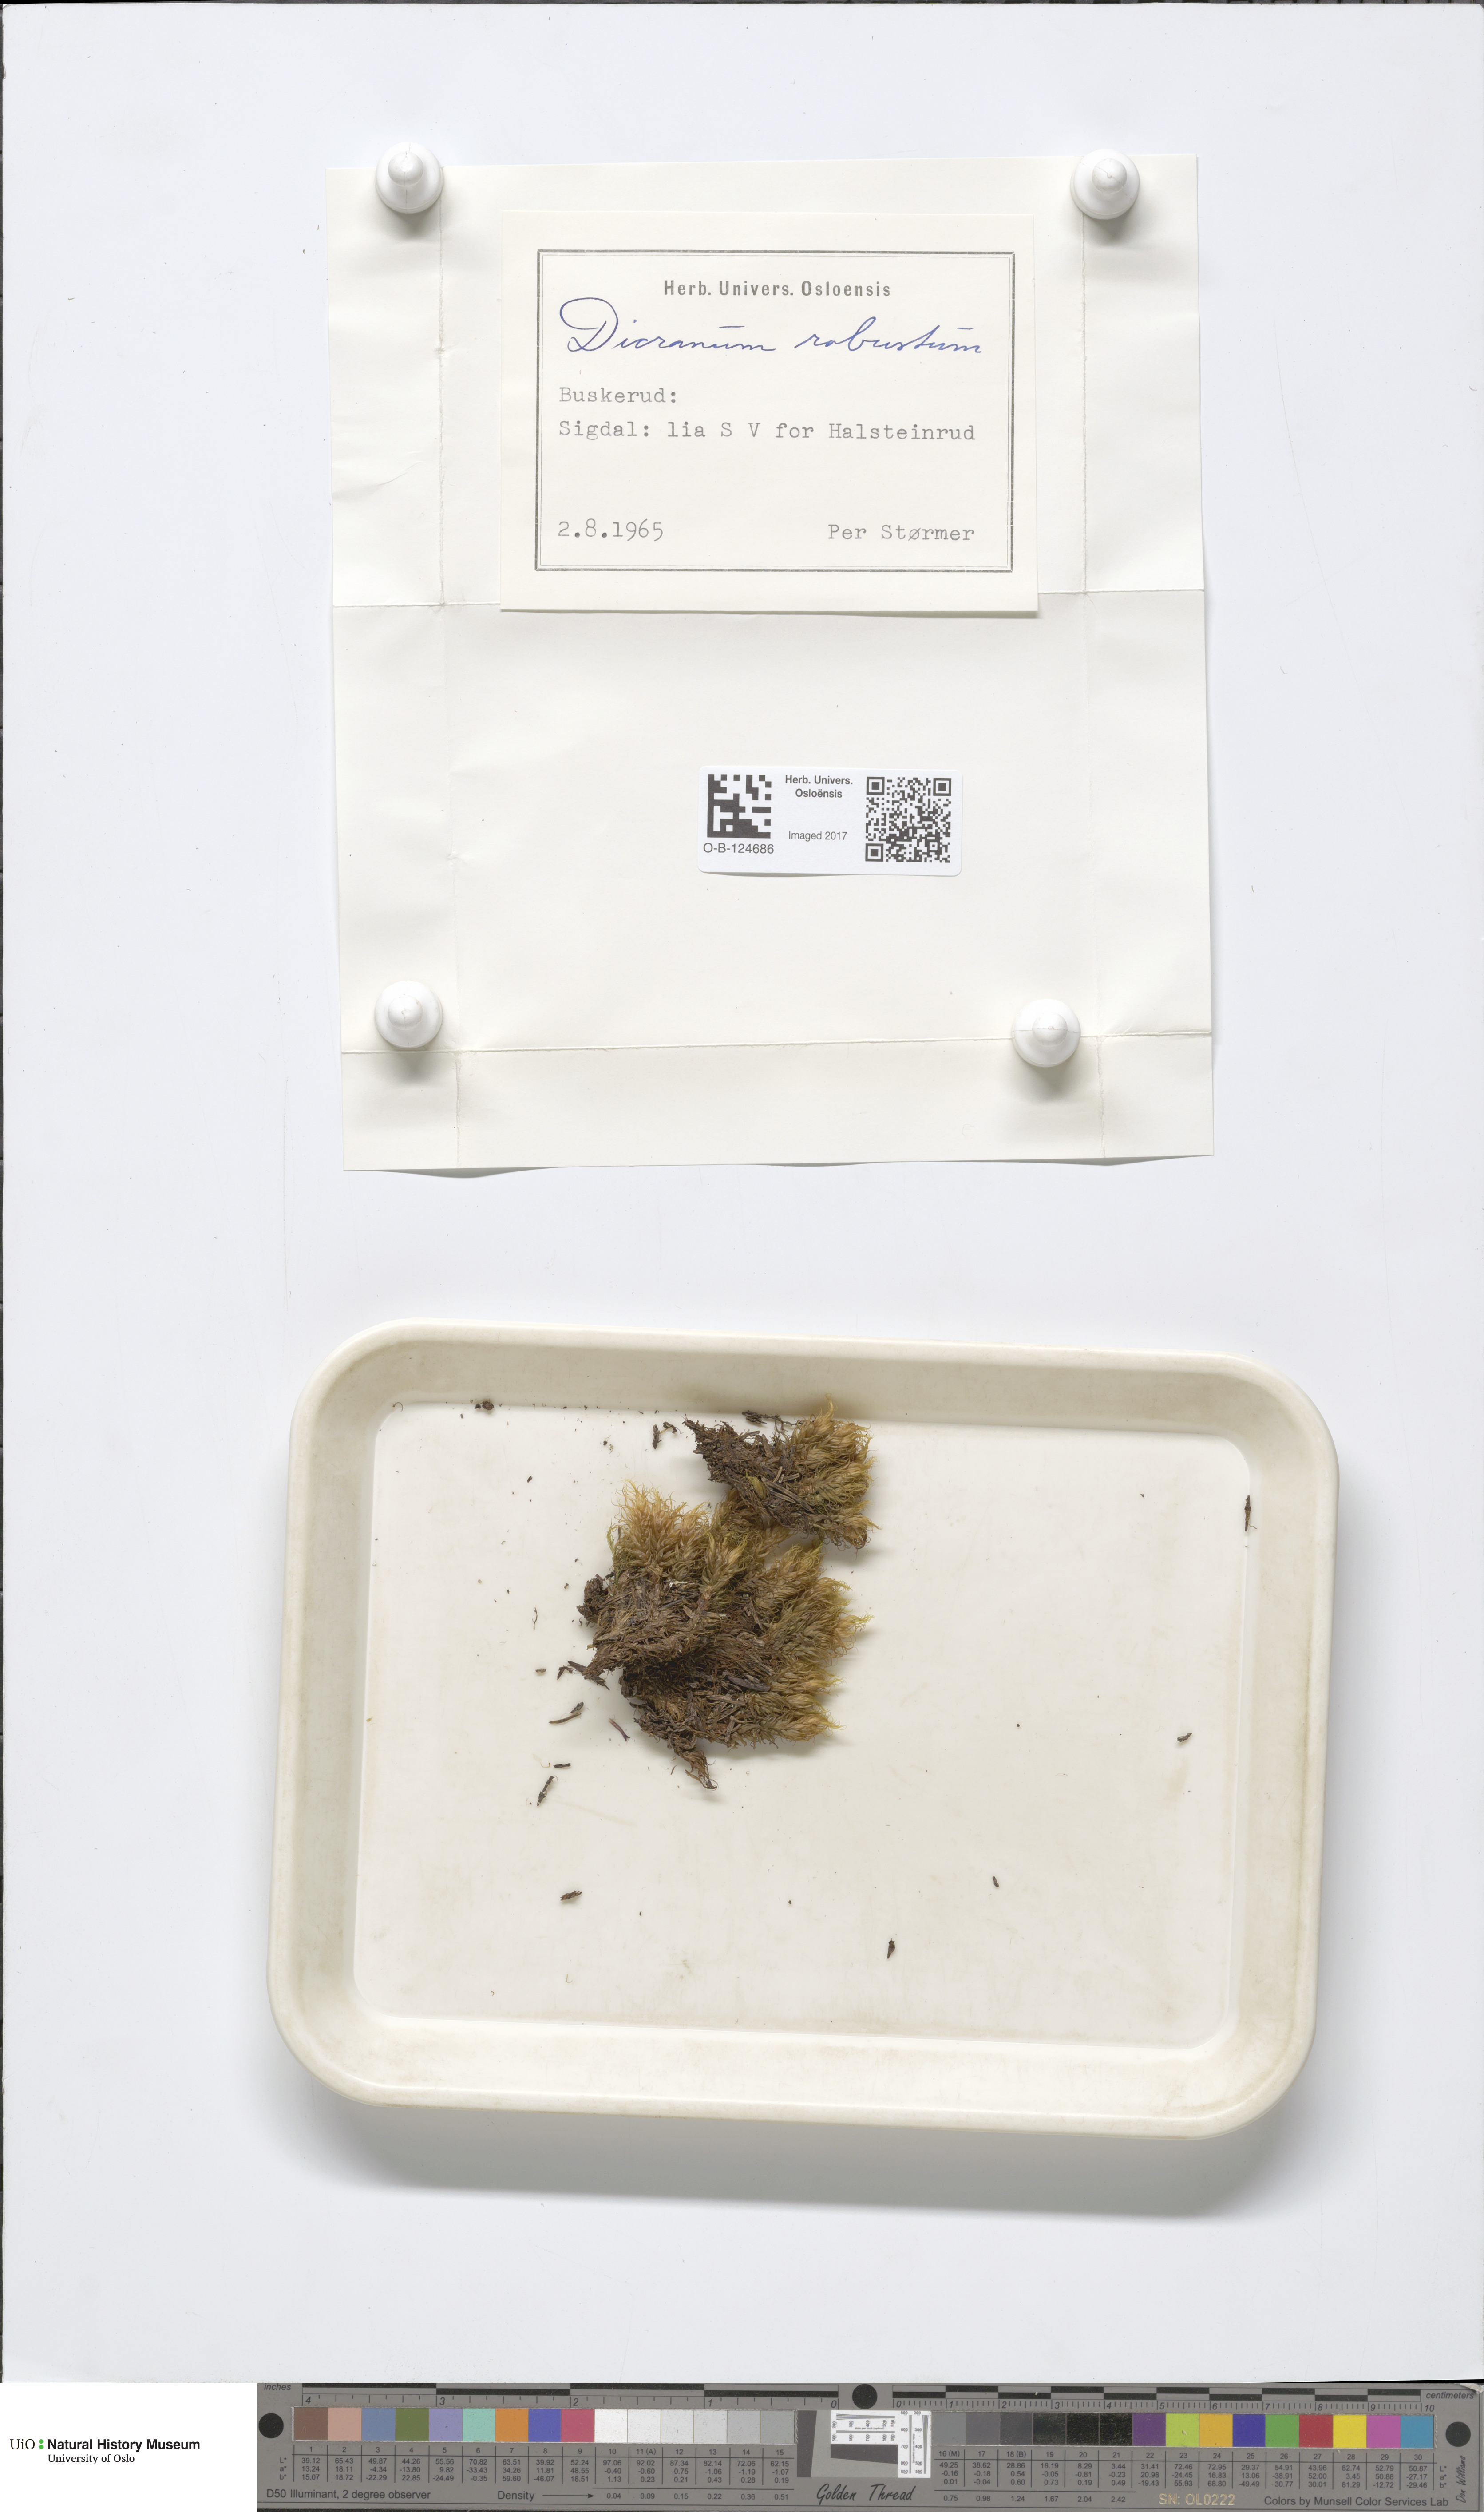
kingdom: Plantae
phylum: Bryophyta
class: Bryopsida
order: Dicranales
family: Dicranaceae
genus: Dicranum
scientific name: Dicranum drummondii
